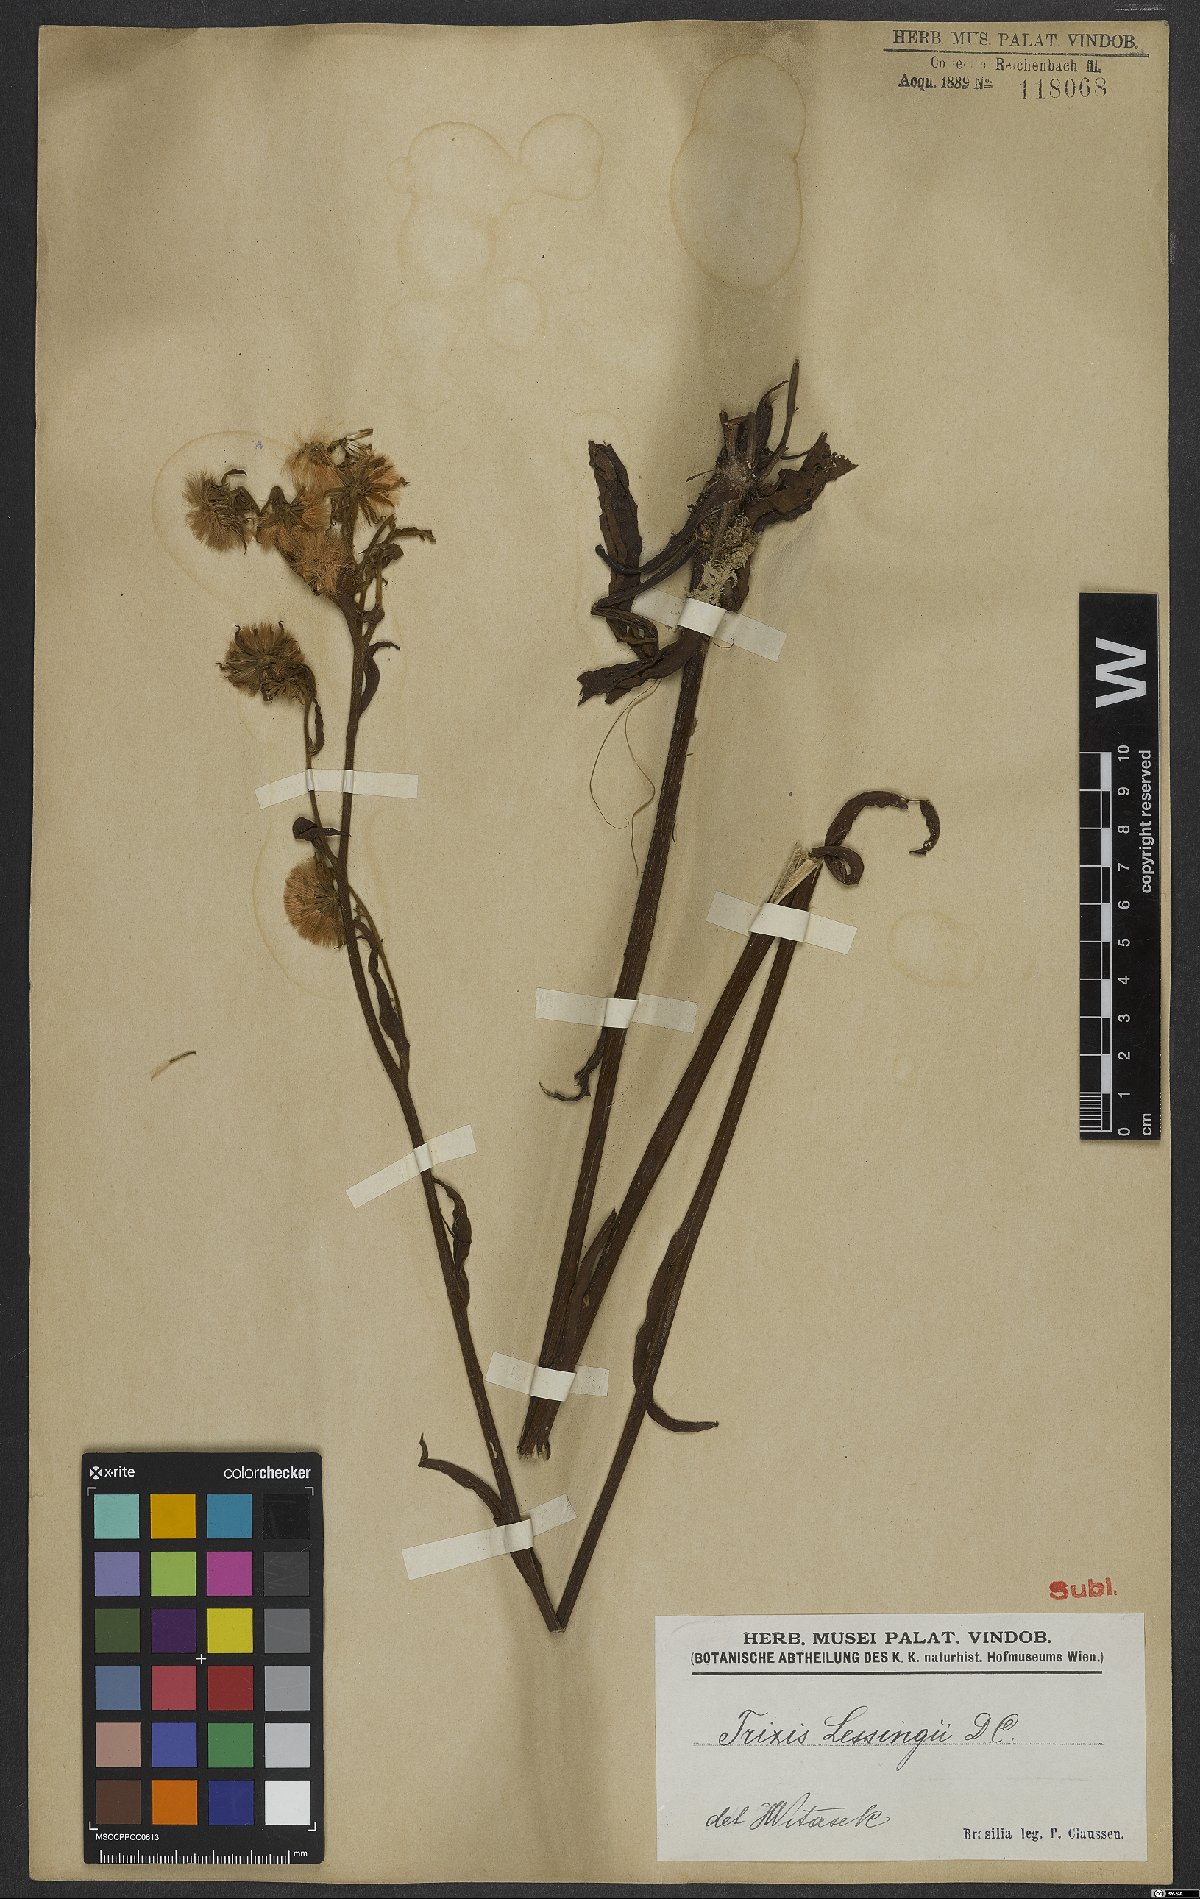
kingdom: Plantae
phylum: Tracheophyta
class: Magnoliopsida
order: Asterales
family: Asteraceae
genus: Trixis
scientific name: Trixis lessingii
